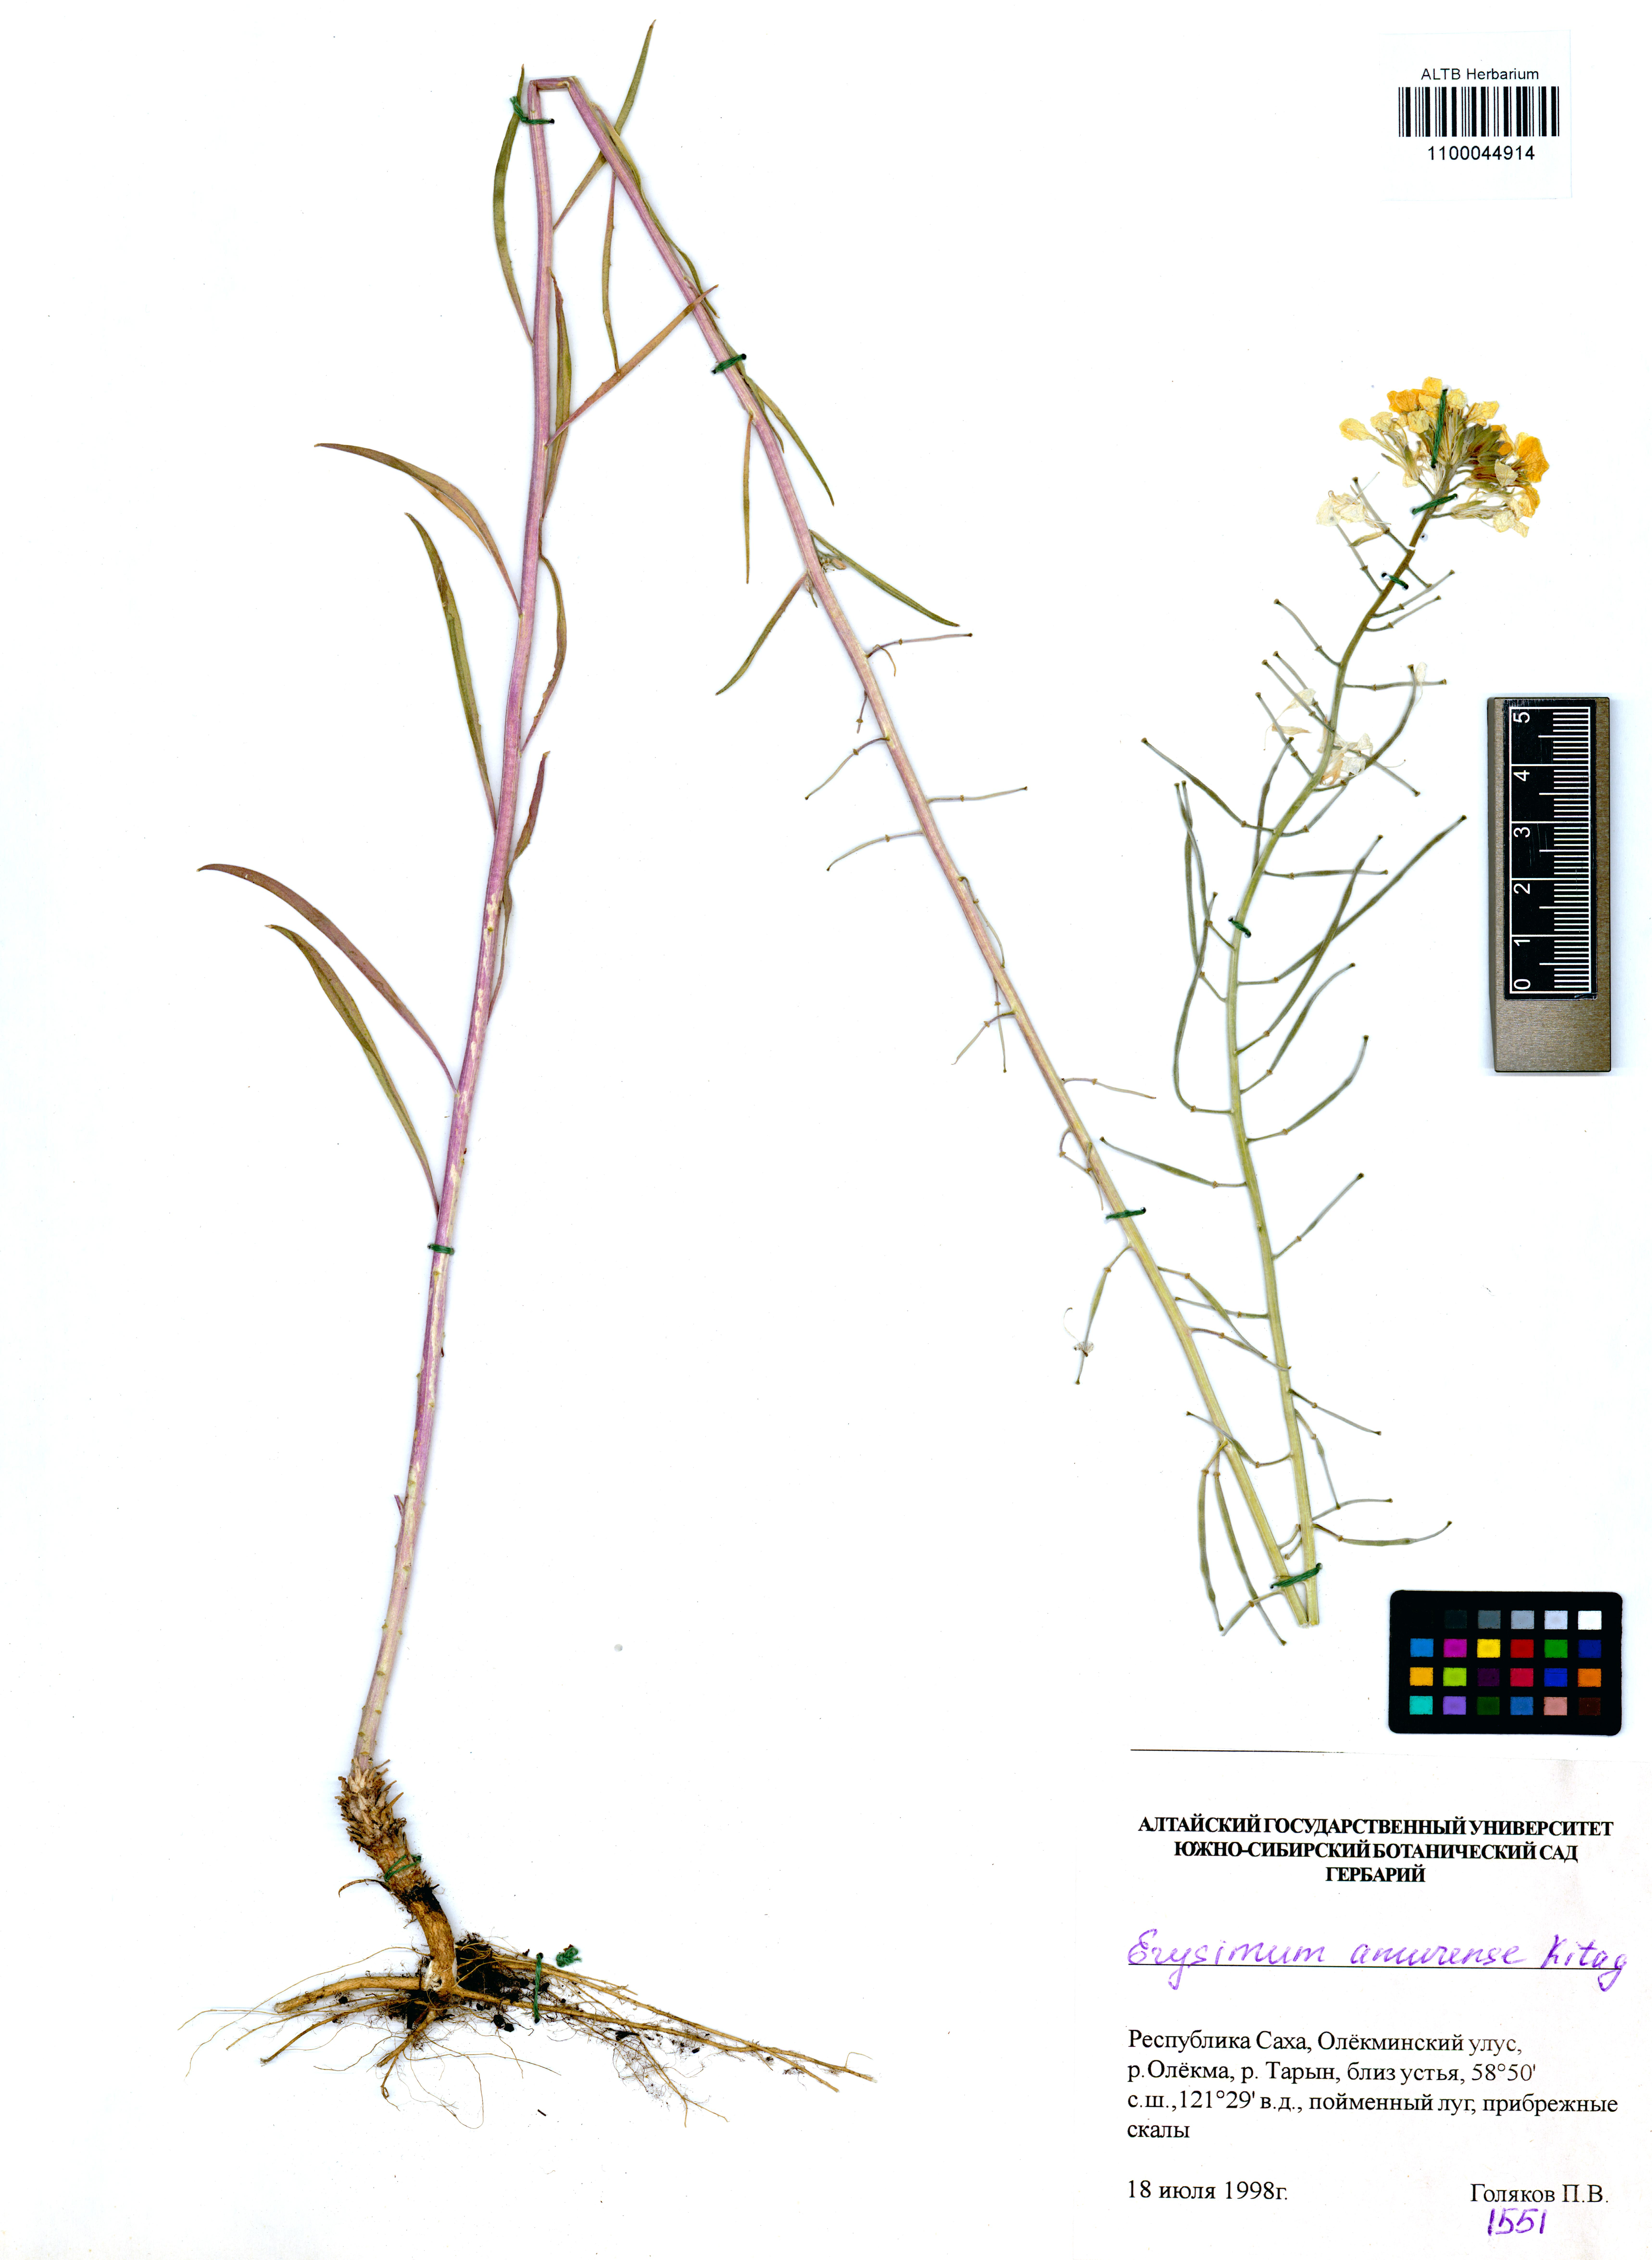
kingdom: Plantae
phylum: Tracheophyta
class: Magnoliopsida
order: Brassicales
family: Brassicaceae
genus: Erysimum
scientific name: Erysimum amurense
